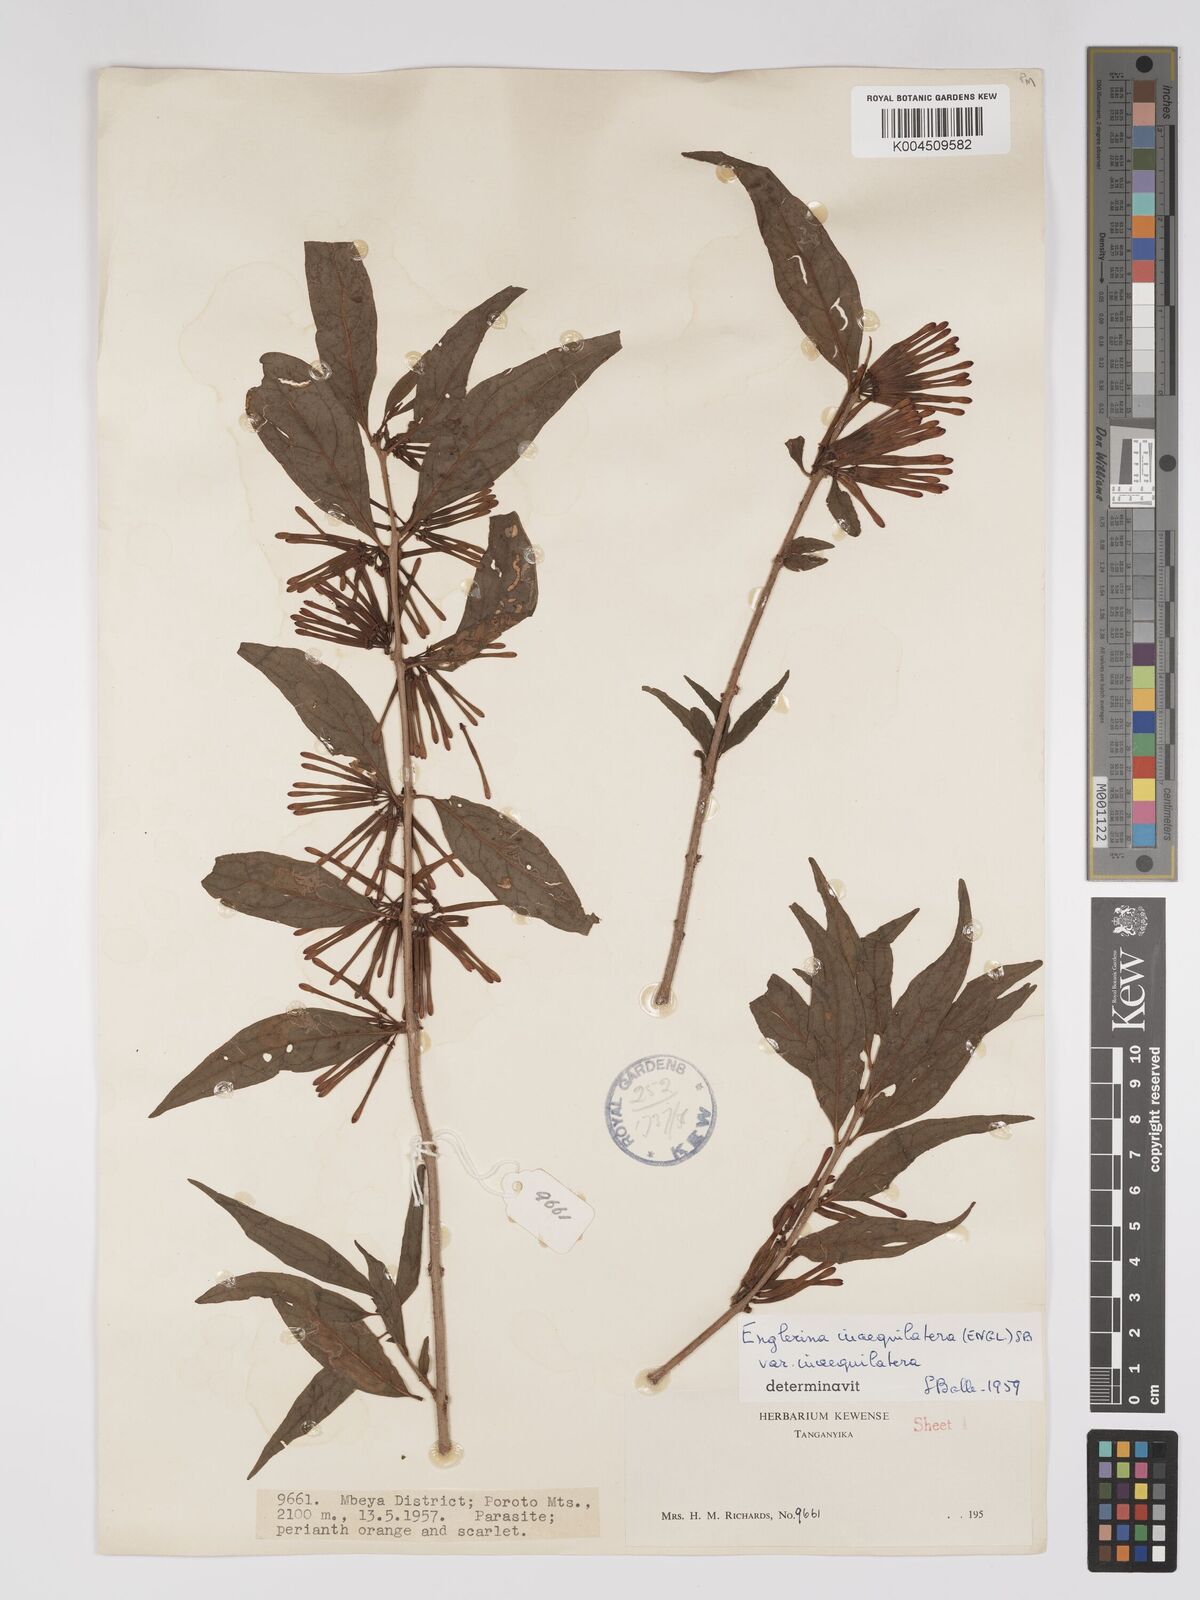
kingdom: Plantae
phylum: Tracheophyta
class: Magnoliopsida
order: Santalales
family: Loranthaceae
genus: Englerina
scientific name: Englerina inaequilatera
